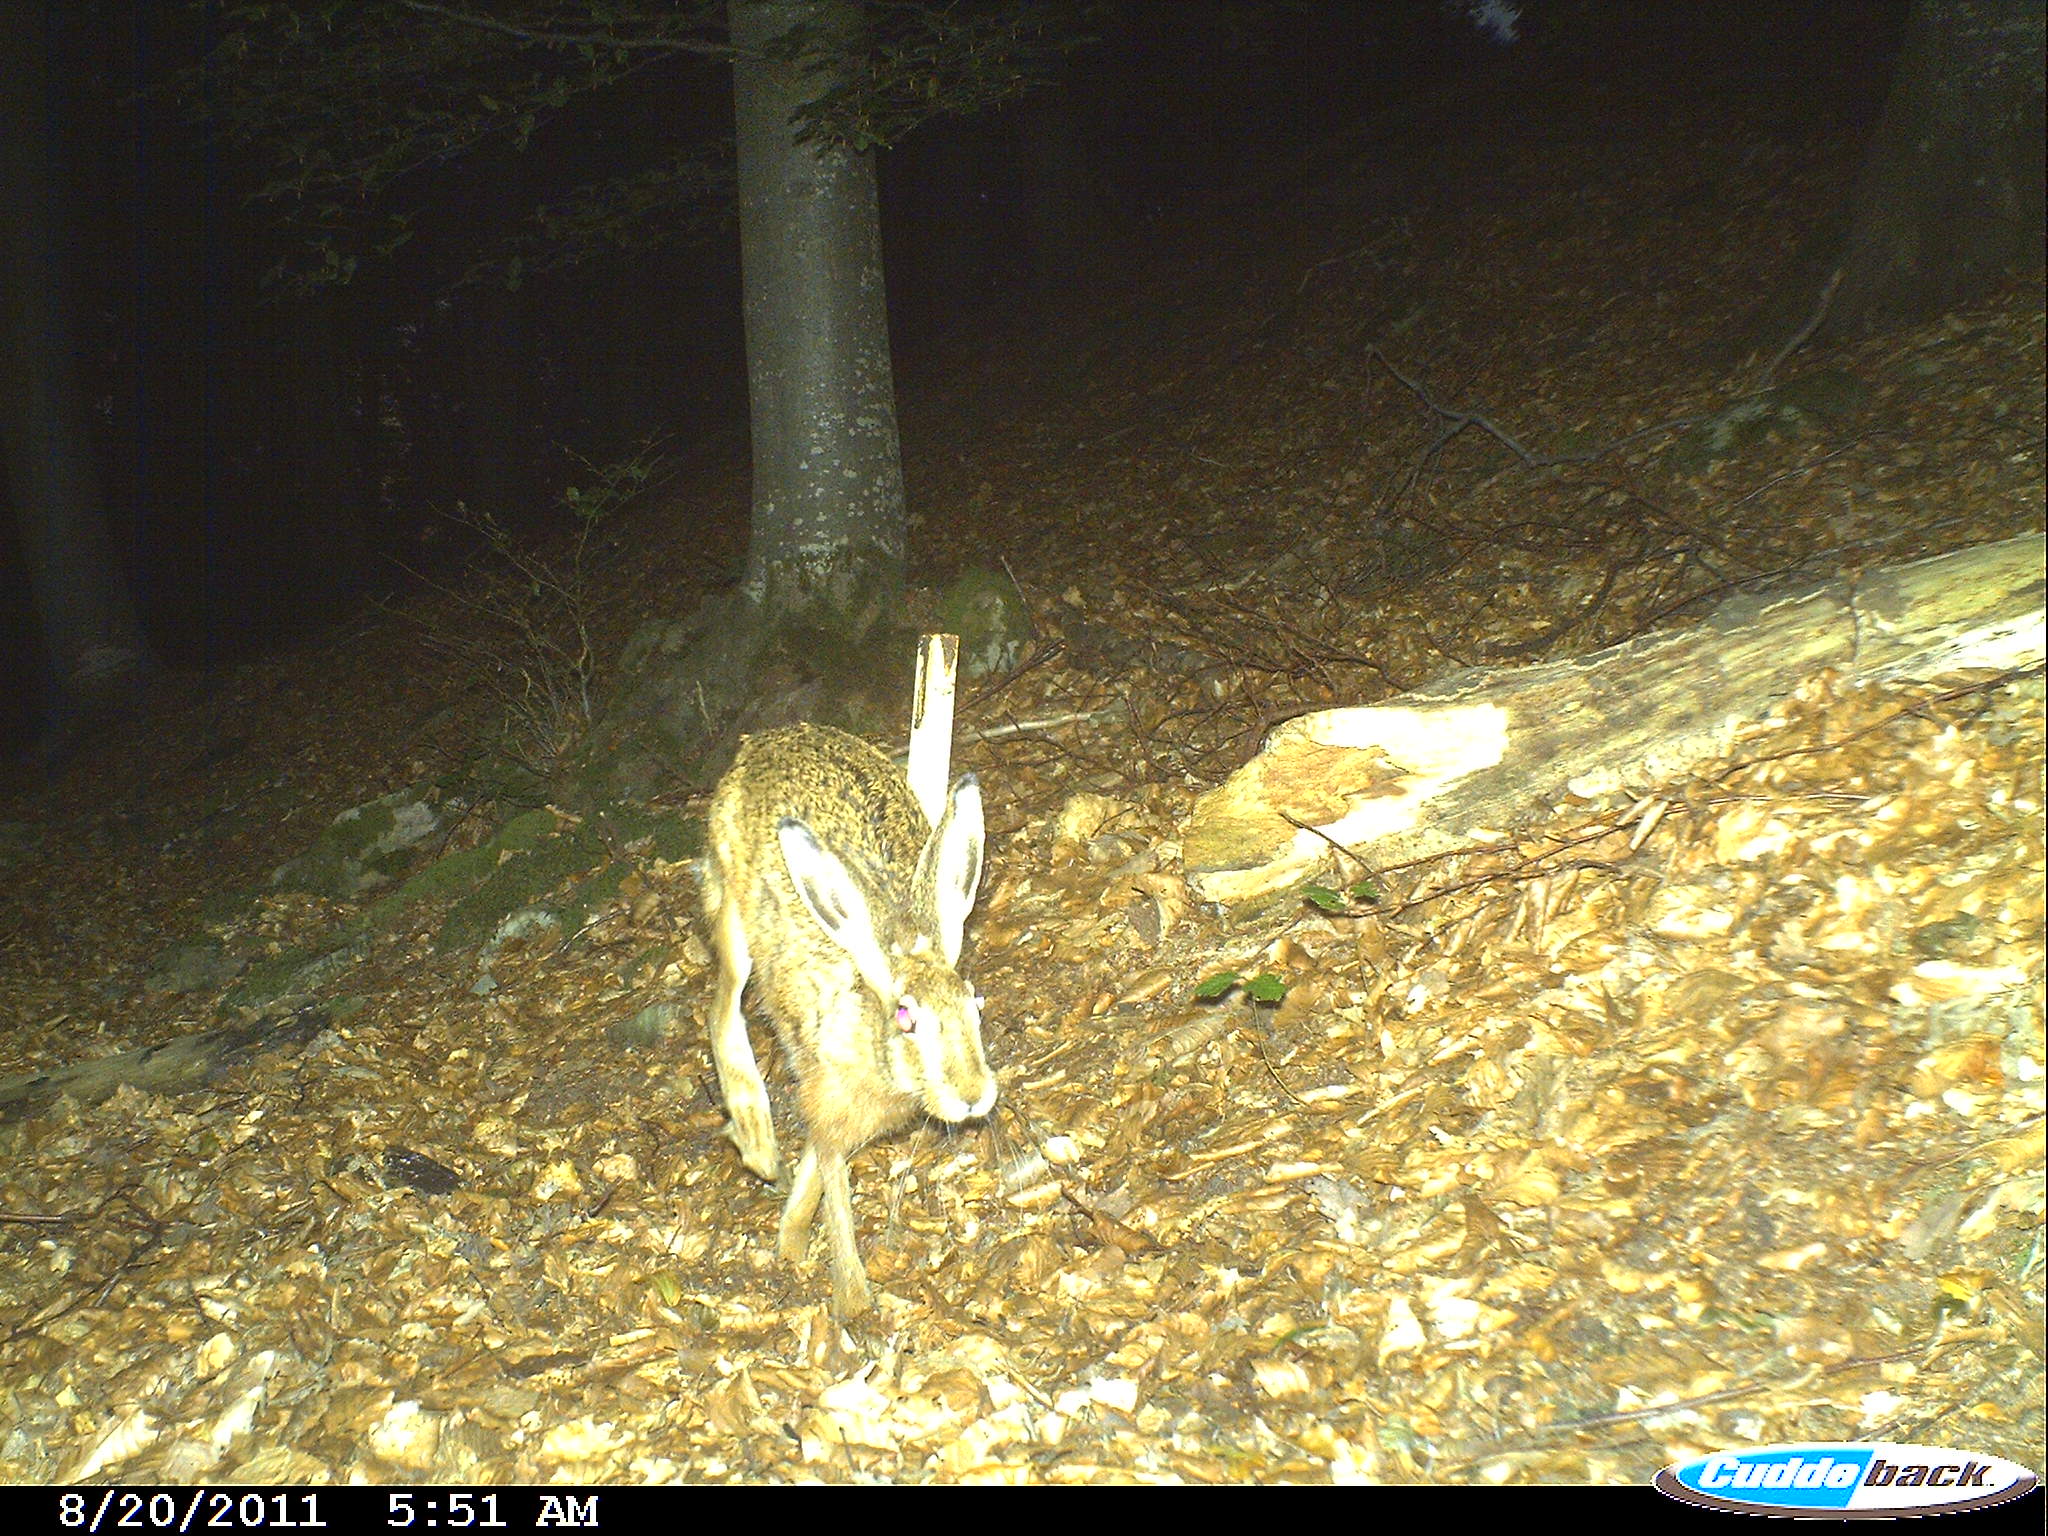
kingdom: Animalia
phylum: Chordata
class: Mammalia
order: Lagomorpha
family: Leporidae
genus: Lepus
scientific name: Lepus europaeus
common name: European hare
